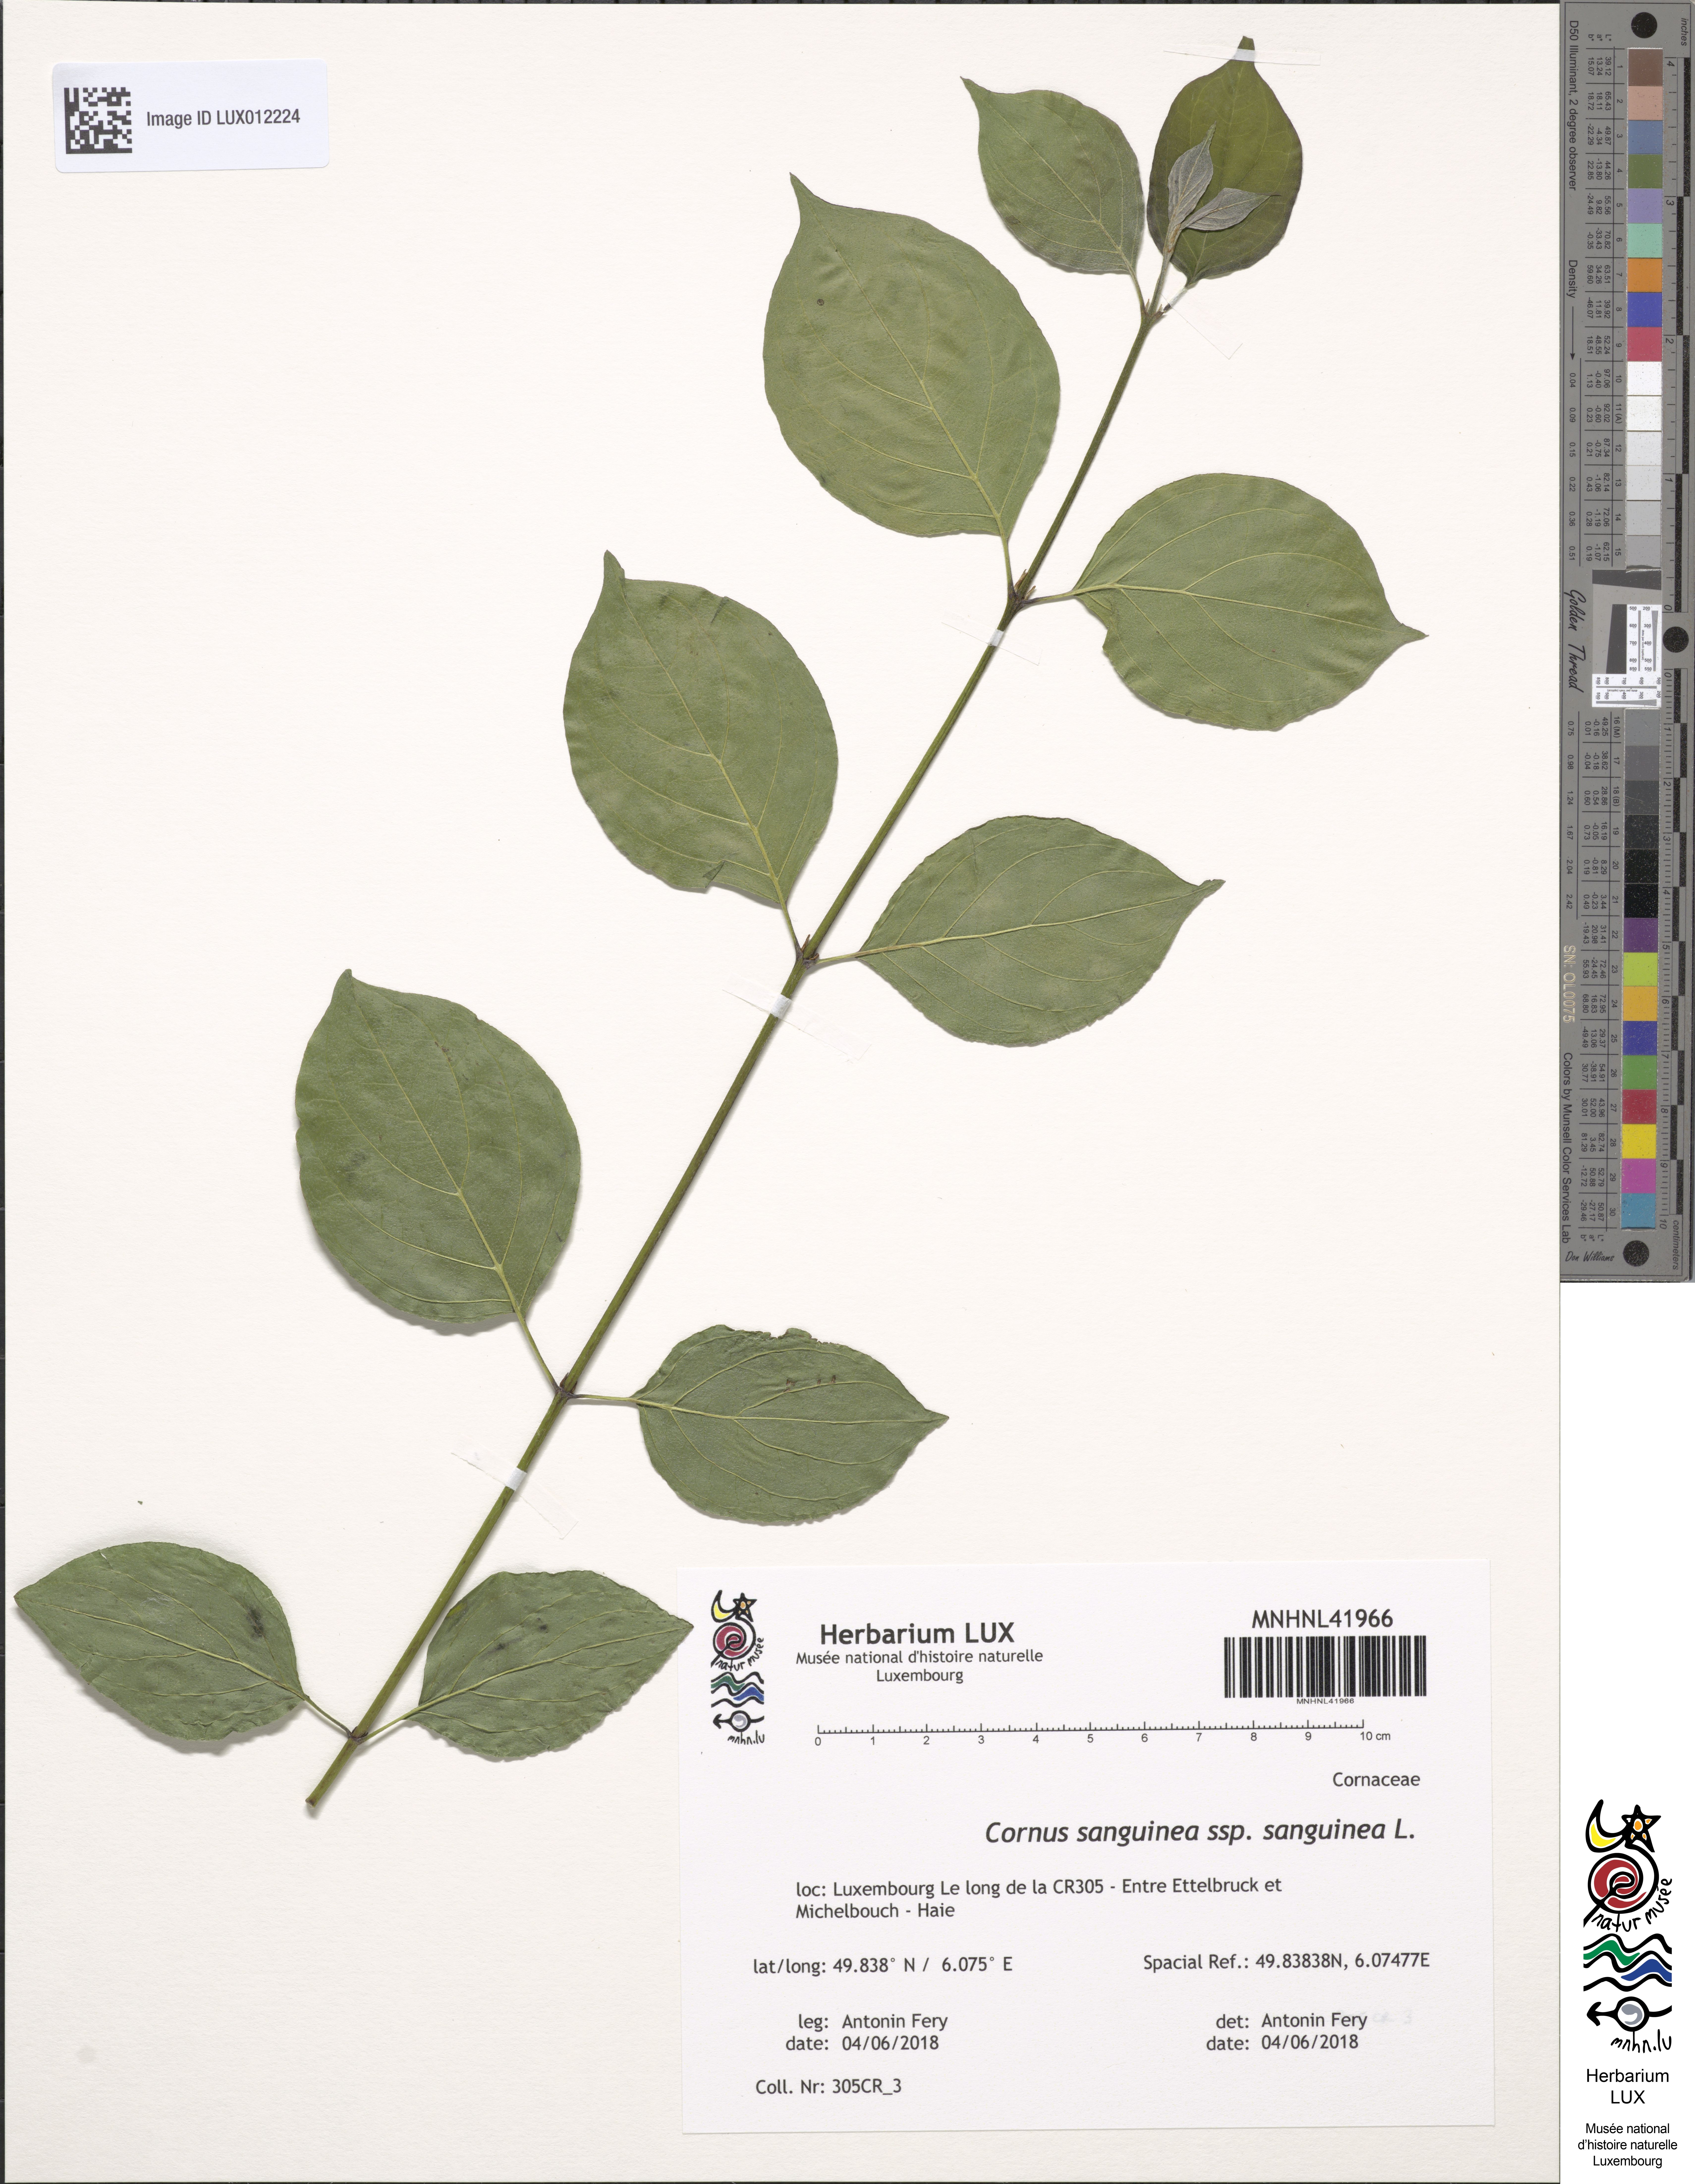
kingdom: Plantae
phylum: Tracheophyta
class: Magnoliopsida
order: Cornales
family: Cornaceae
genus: Cornus
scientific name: Cornus sanguinea
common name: Dogwood
